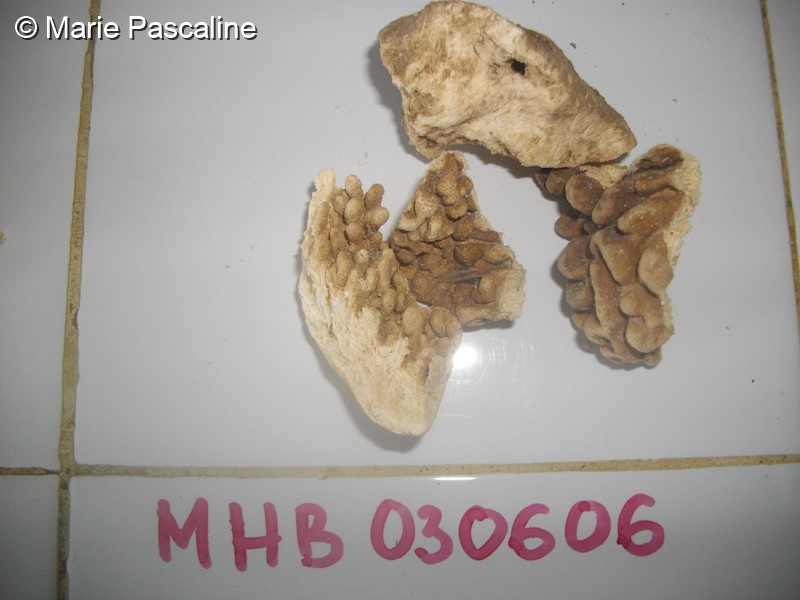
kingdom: Animalia
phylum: Cnidaria
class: Anthozoa
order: Malacalcyonacea
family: Sarcophytidae
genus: Sclerophytum
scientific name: Sclerophytum gravis
